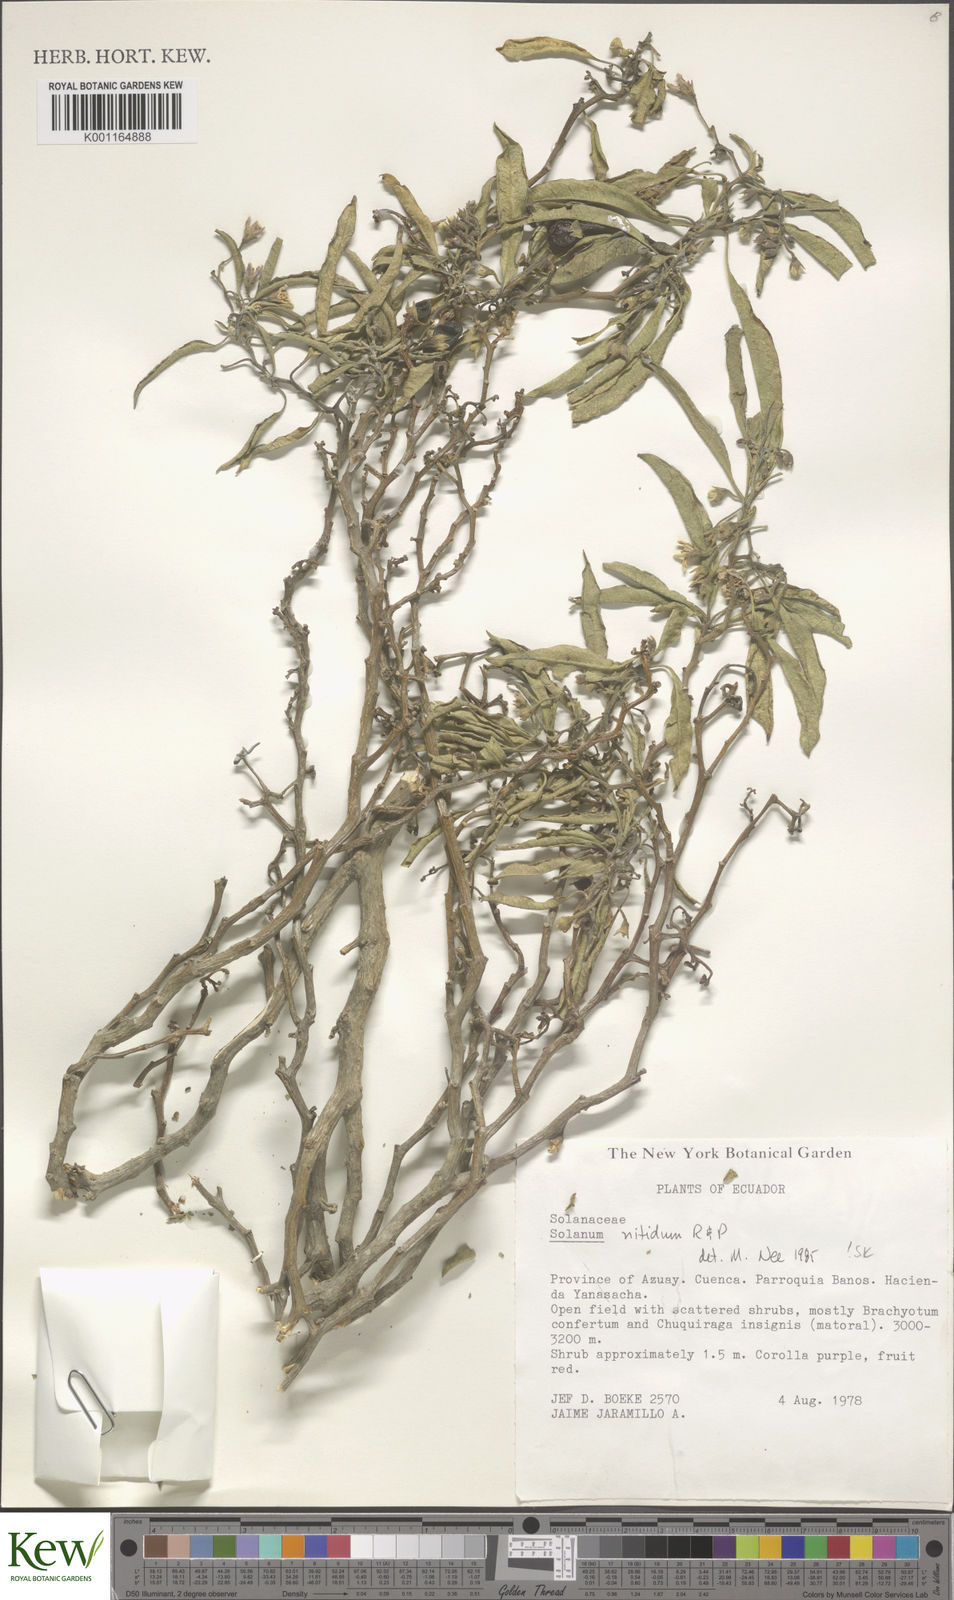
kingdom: Plantae
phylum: Tracheophyta
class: Magnoliopsida
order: Solanales
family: Solanaceae
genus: Solanum
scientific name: Solanum nitidum
